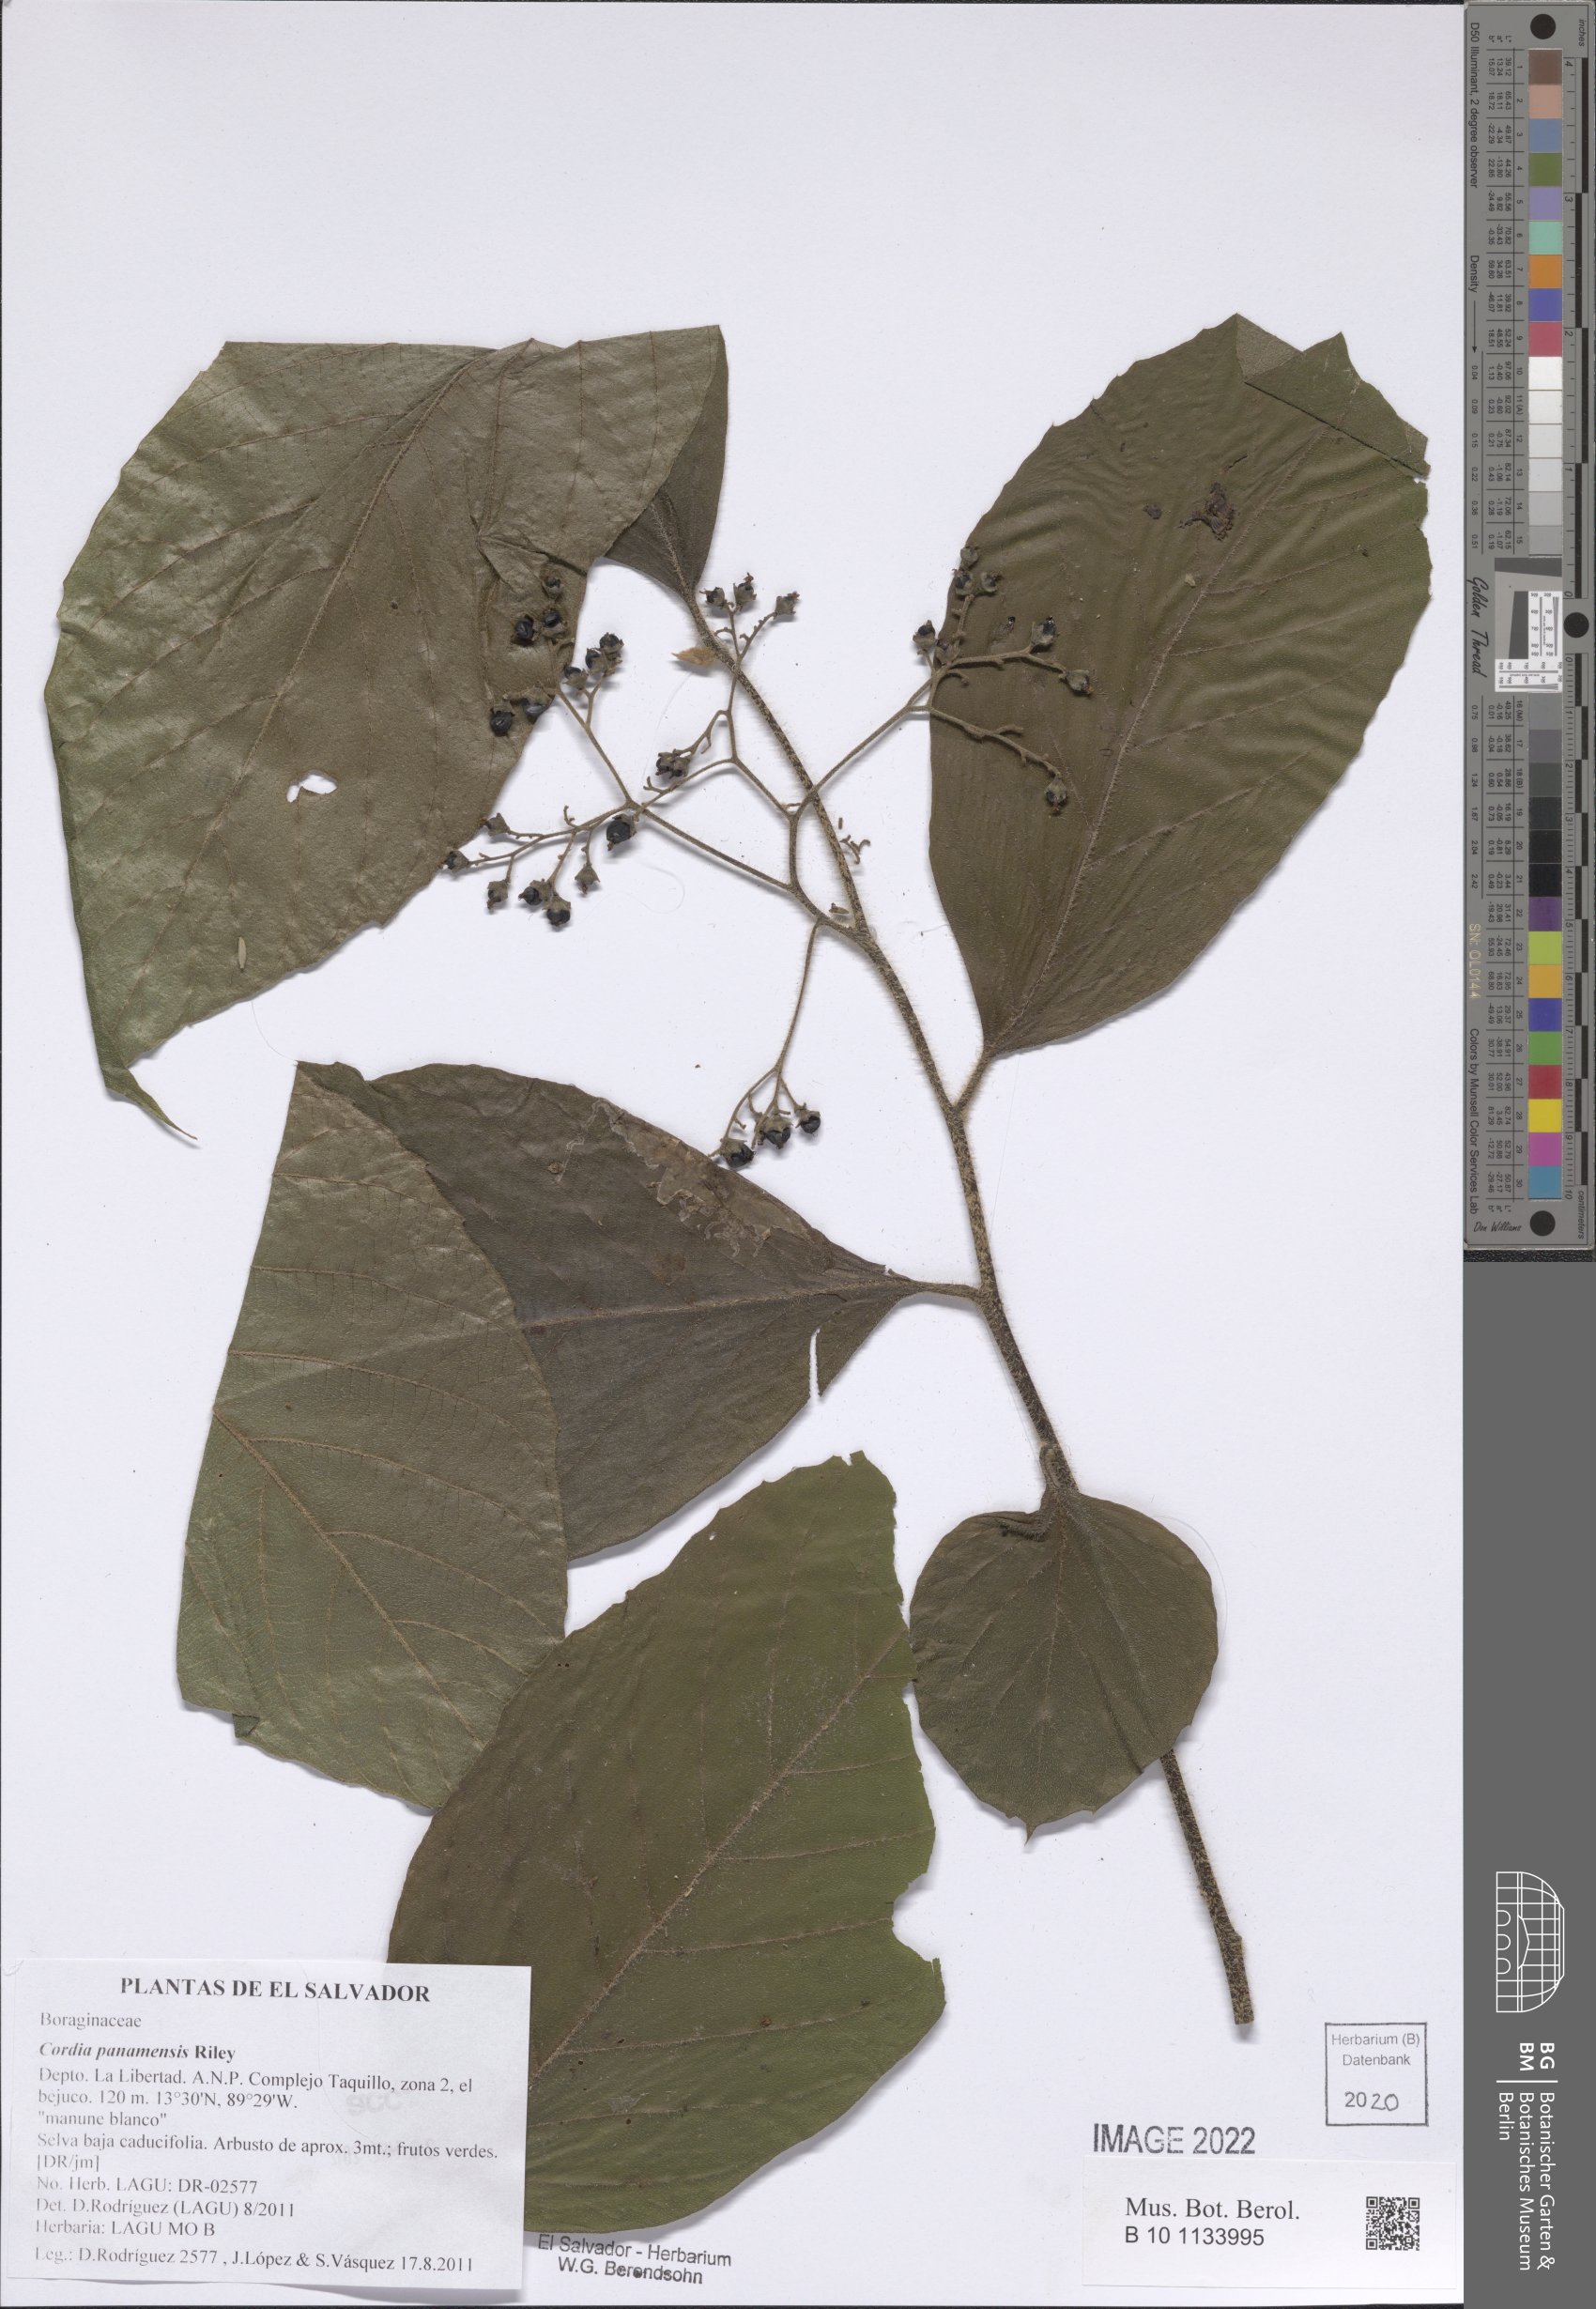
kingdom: Plantae
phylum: Tracheophyta
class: Magnoliopsida
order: Boraginales
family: Cordiaceae
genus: Cordia
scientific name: Cordia panamensis
